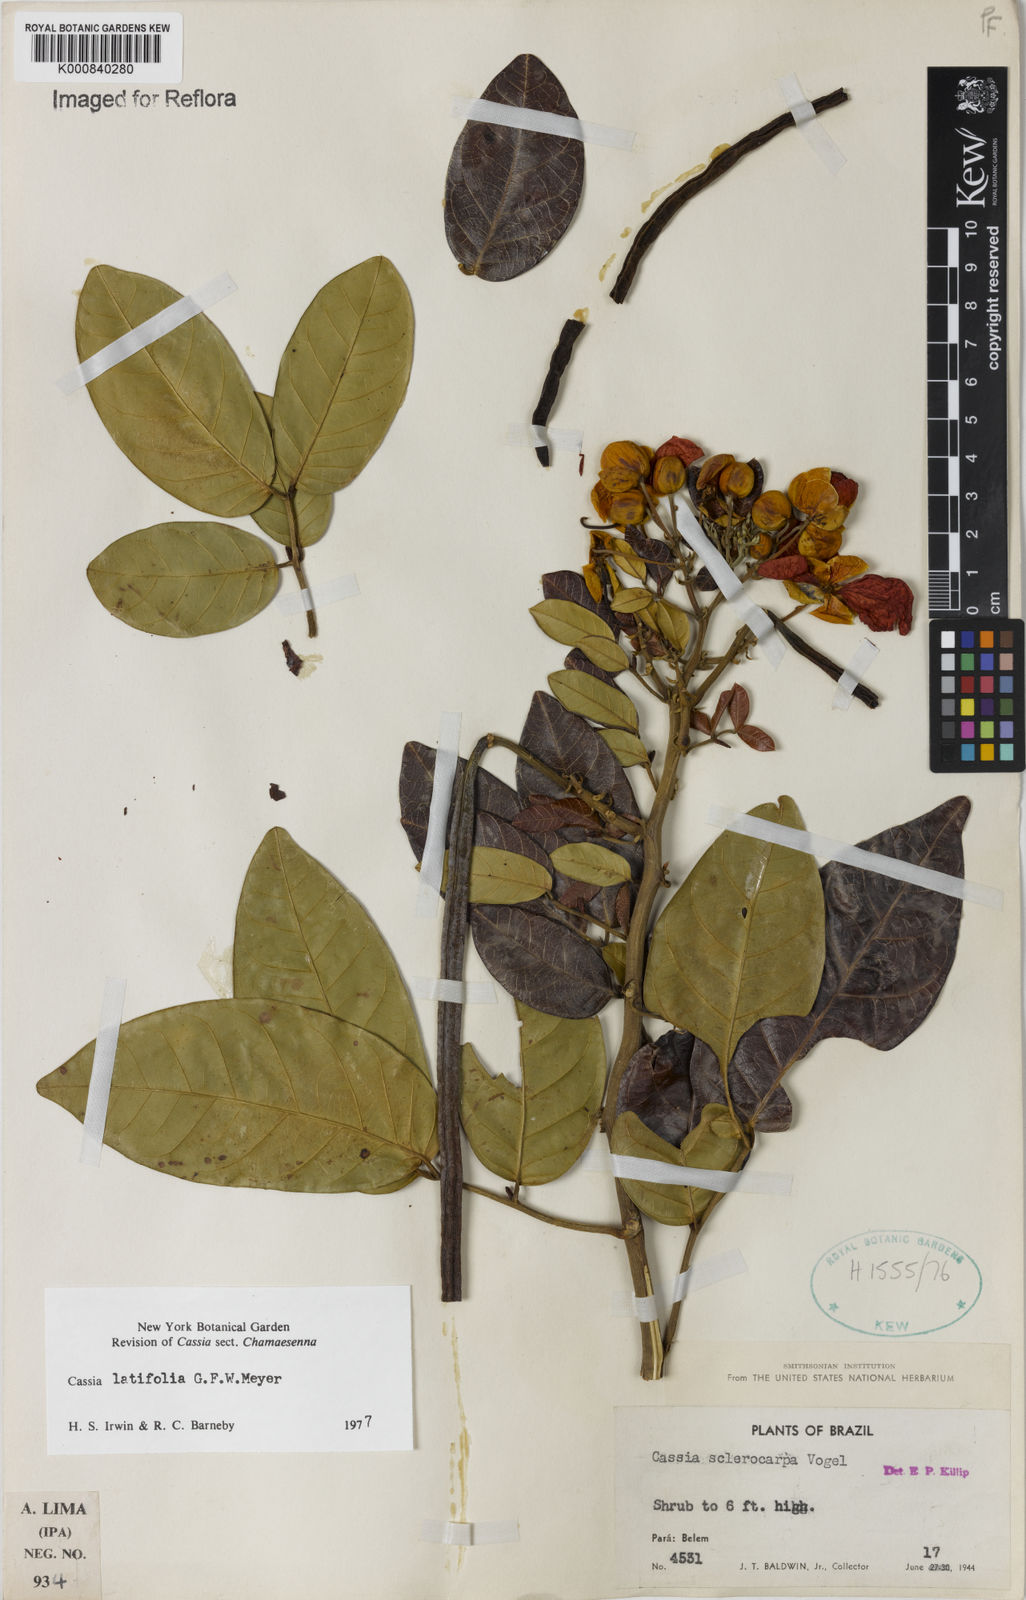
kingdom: Plantae
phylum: Tracheophyta
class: Magnoliopsida
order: Fabales
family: Fabaceae
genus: Senna
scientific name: Senna latifolia
